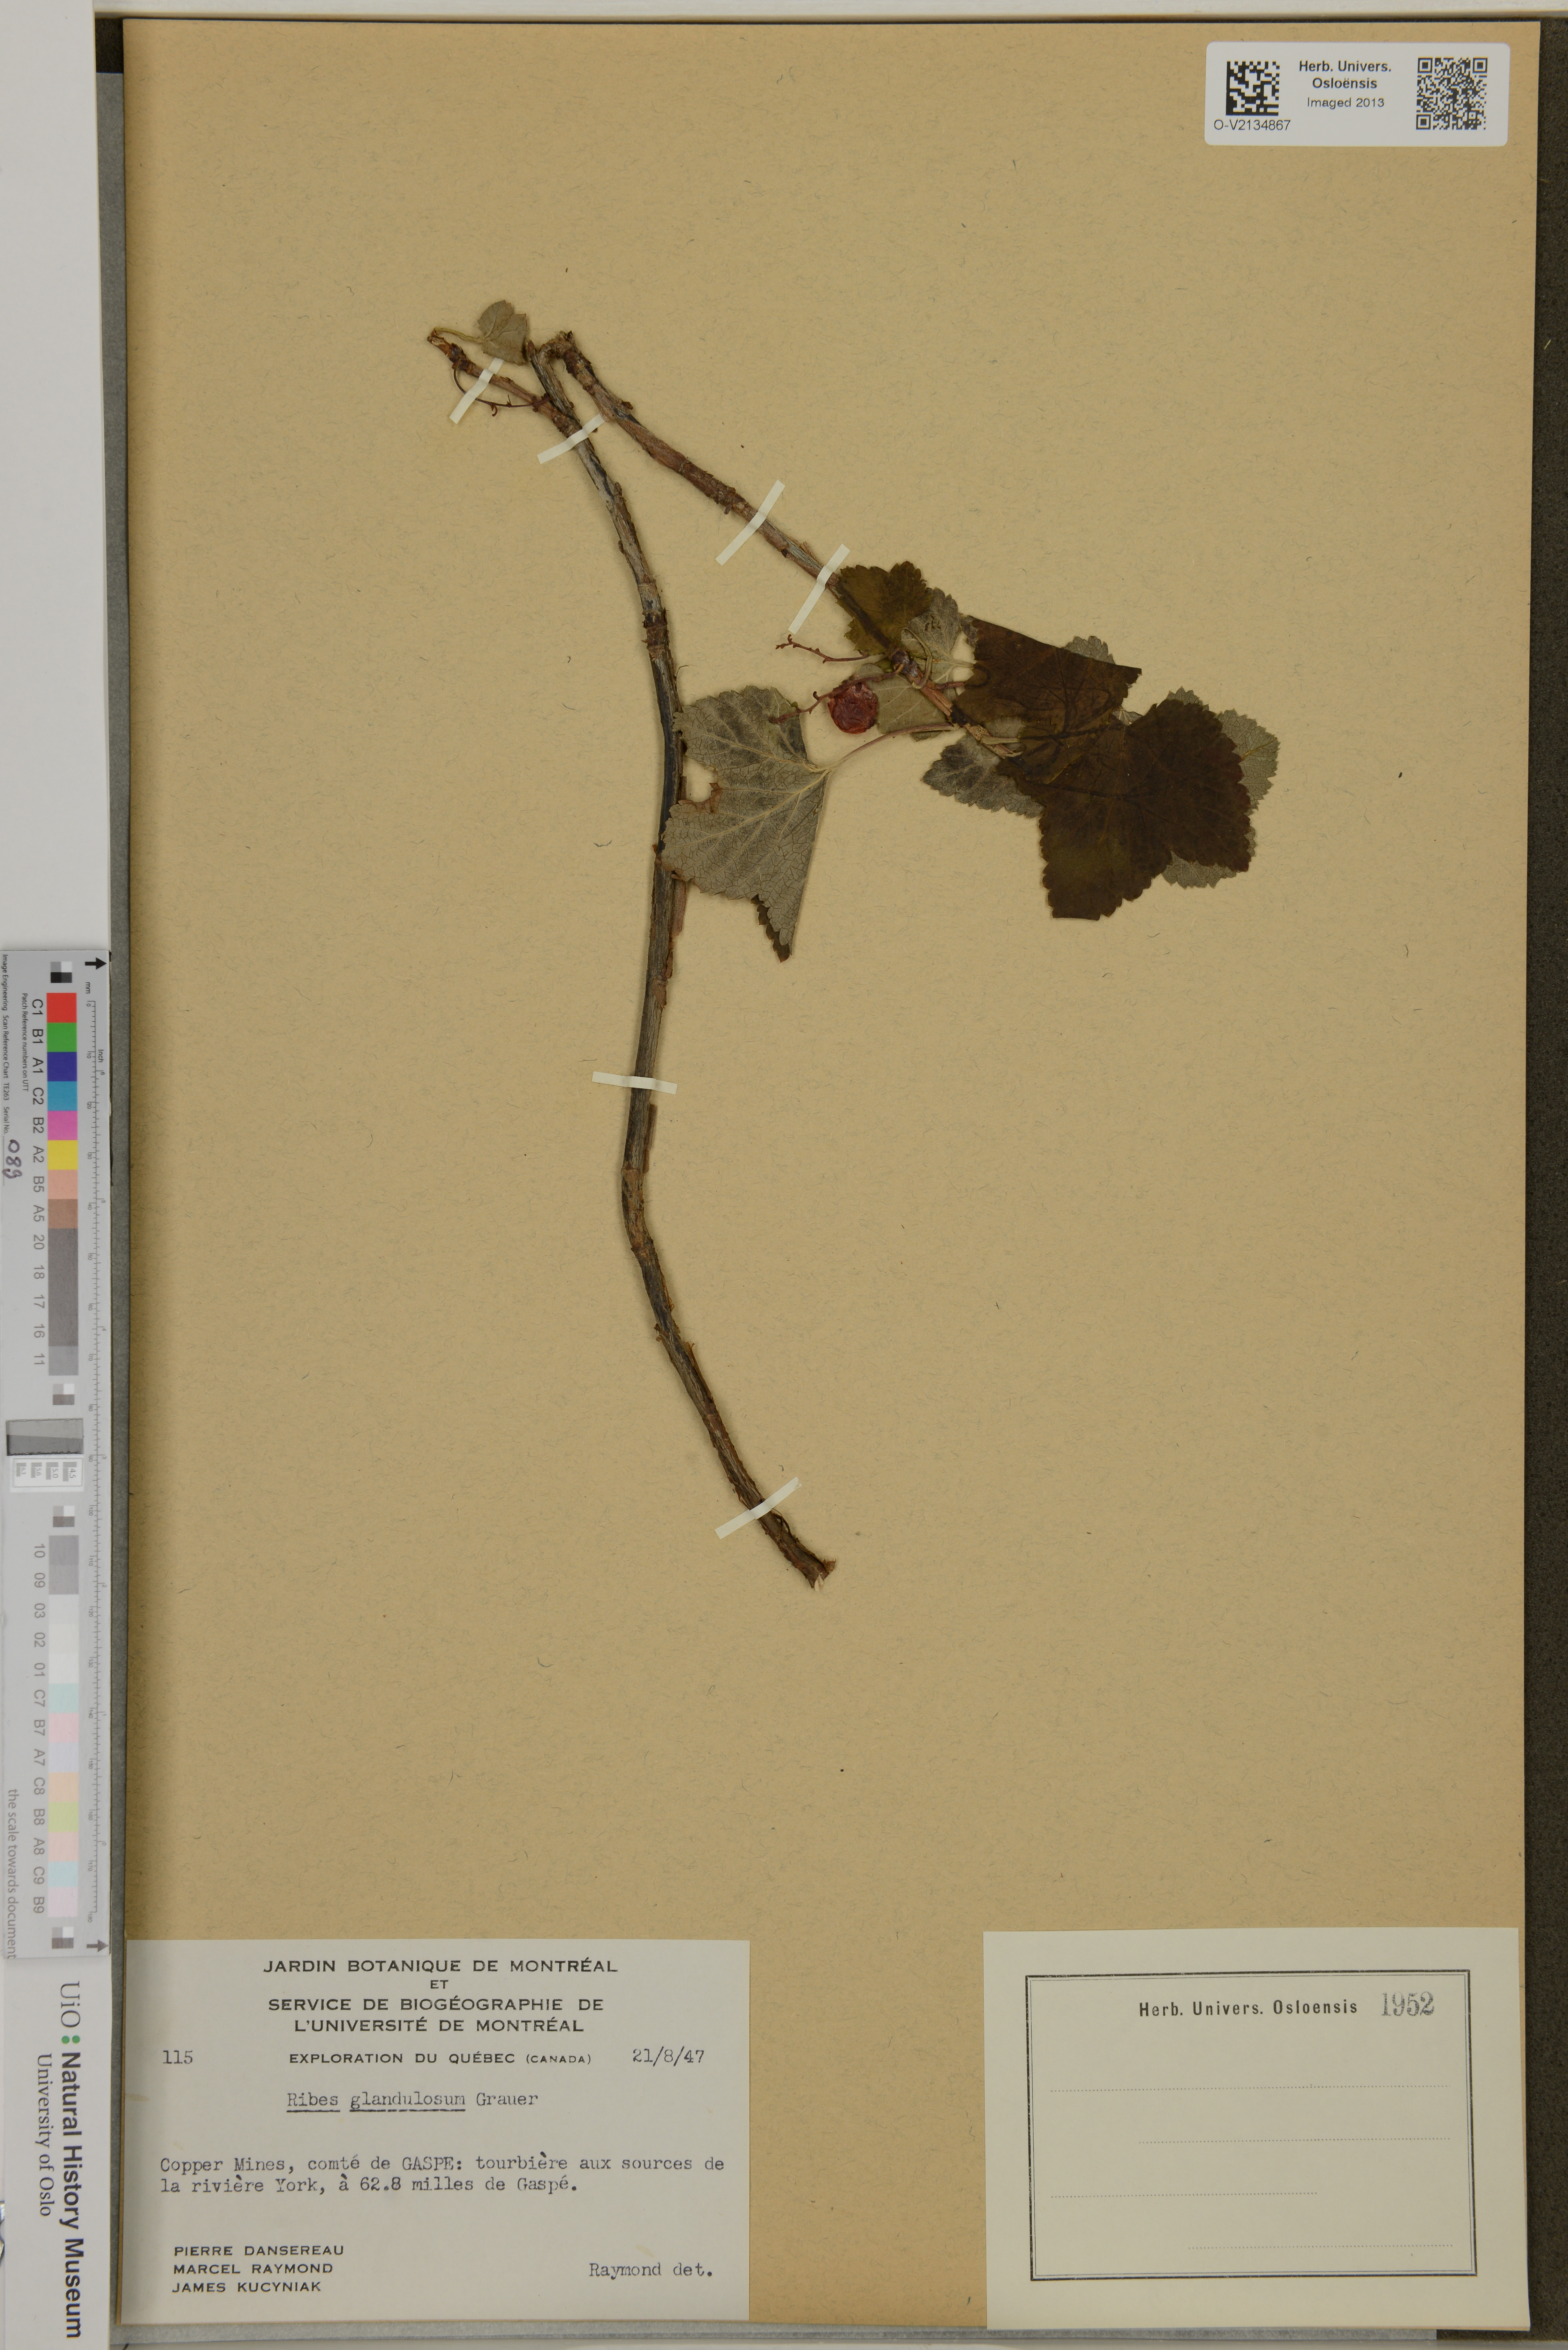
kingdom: Plantae
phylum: Tracheophyta
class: Magnoliopsida
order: Saxifragales
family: Grossulariaceae
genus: Ribes
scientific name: Ribes glandulosum
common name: Skunk currant
